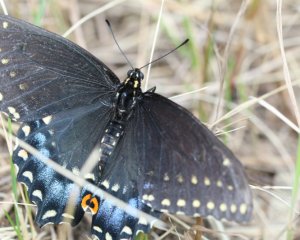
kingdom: Animalia
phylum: Arthropoda
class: Insecta
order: Lepidoptera
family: Papilionidae
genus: Papilio
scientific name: Papilio polyxenes
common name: Black Swallowtail
